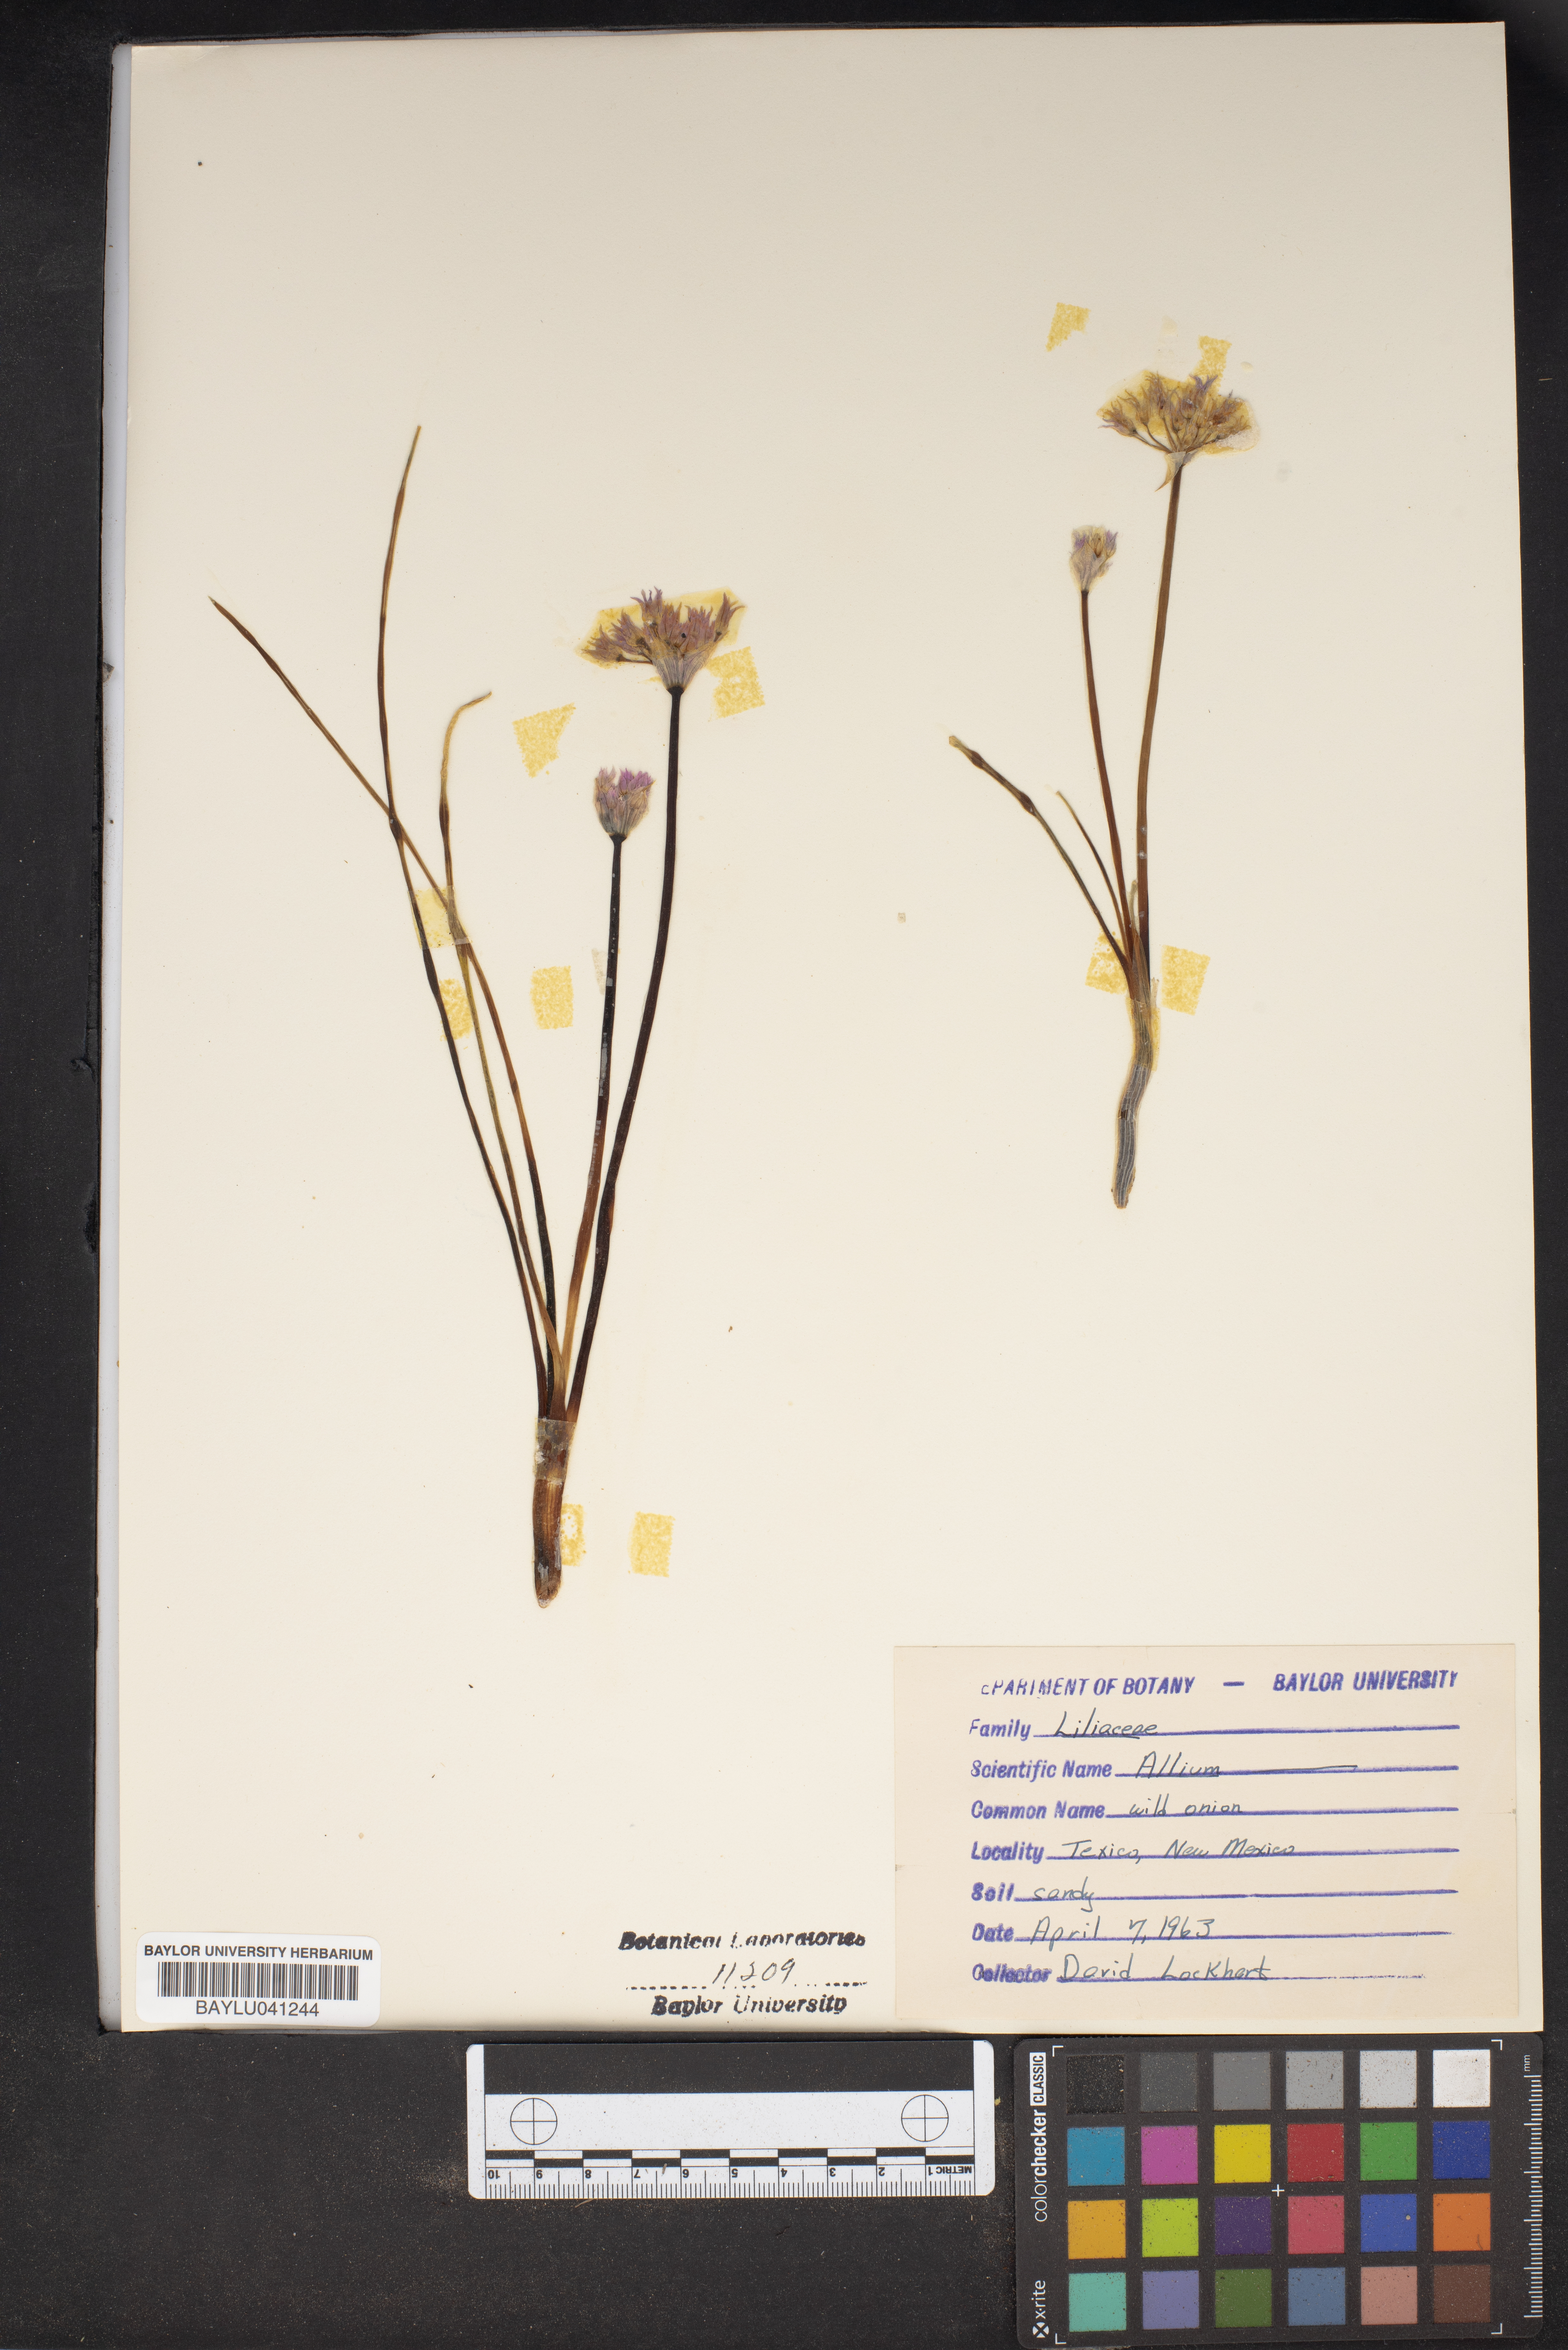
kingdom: Plantae
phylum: Tracheophyta
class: Liliopsida
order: Asparagales
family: Amaryllidaceae
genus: Allium
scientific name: Allium
